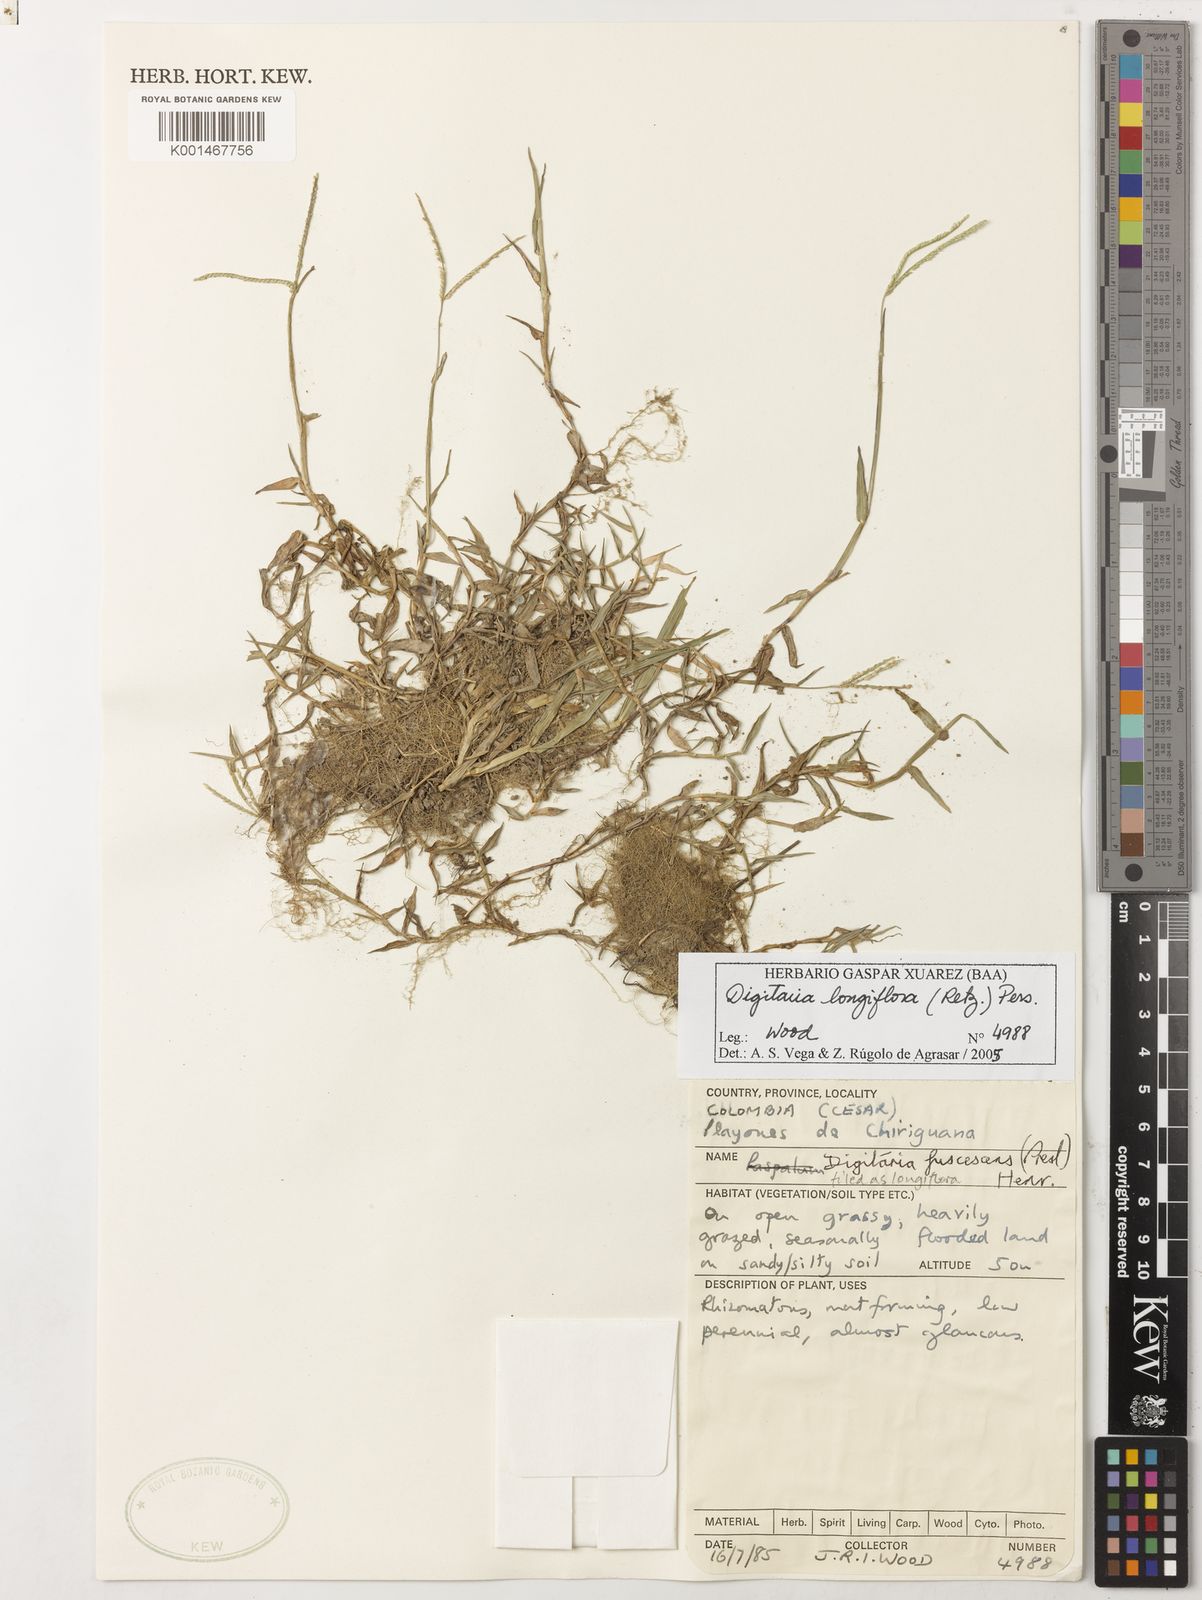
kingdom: Plantae
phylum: Tracheophyta
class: Liliopsida
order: Poales
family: Poaceae
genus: Digitaria
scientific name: Digitaria longiflora
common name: Wire crabgrass
